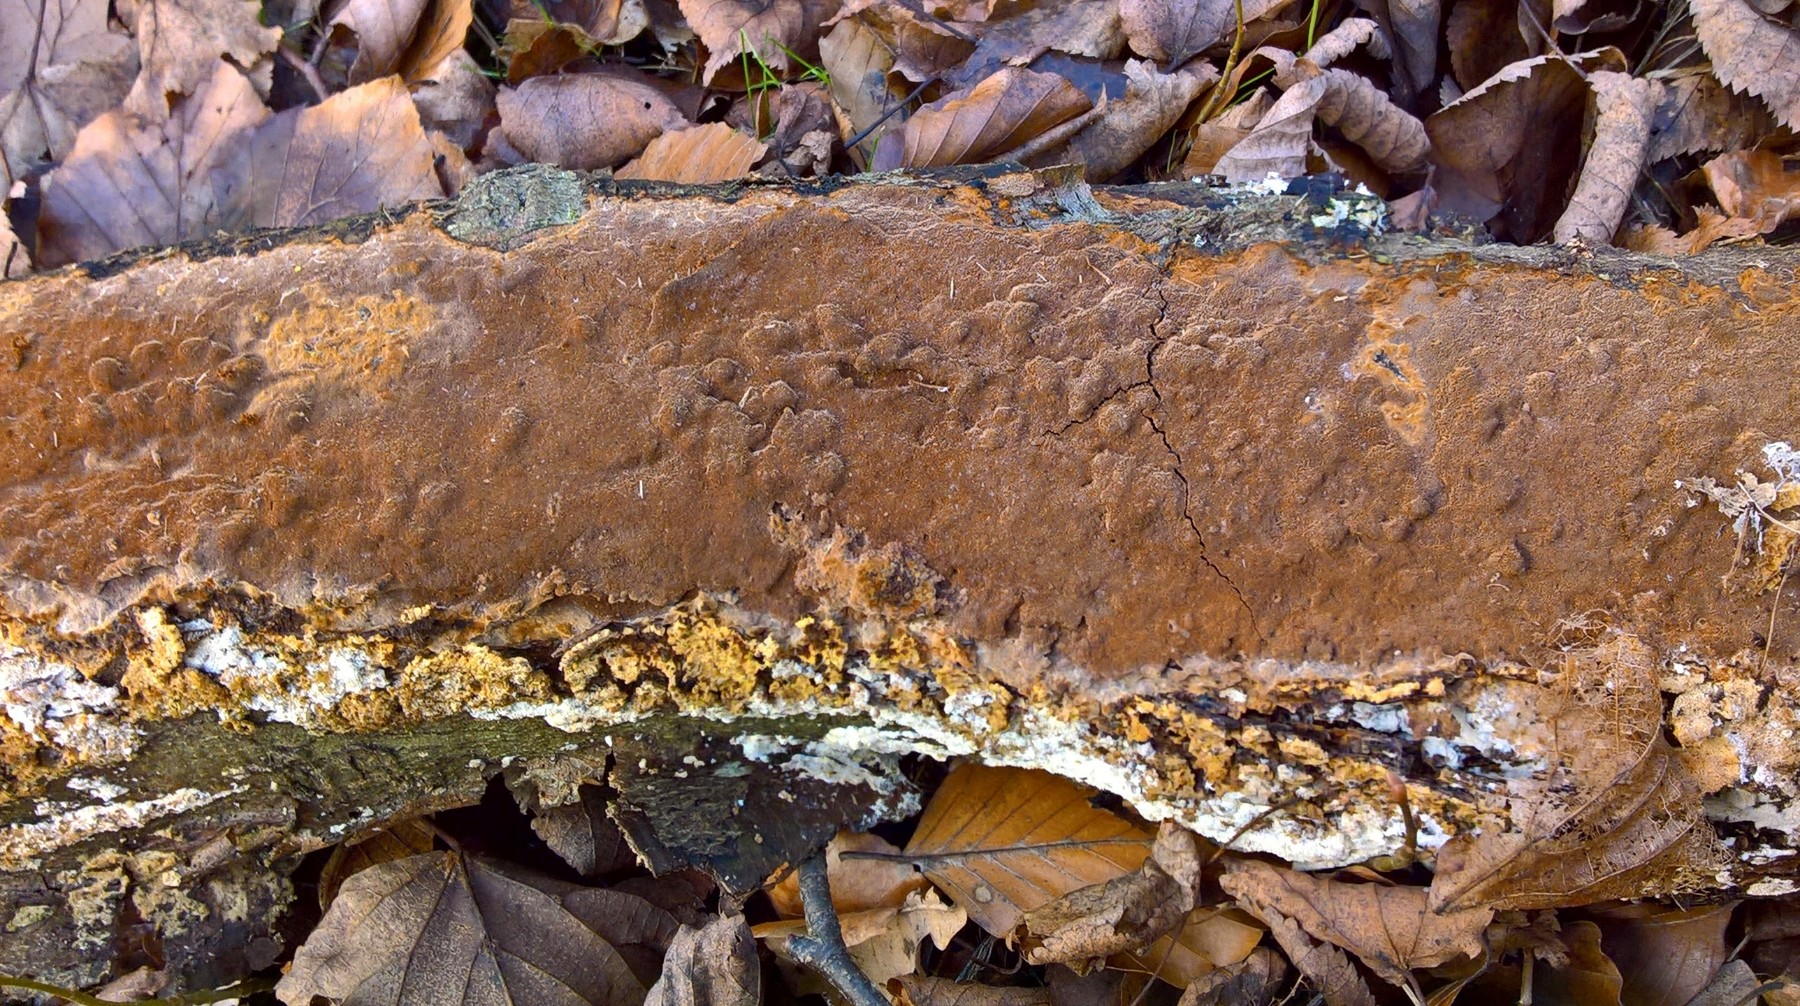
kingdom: Fungi
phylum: Basidiomycota
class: Agaricomycetes
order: Hymenochaetales
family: Hymenochaetaceae
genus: Fuscoporia
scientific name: Fuscoporia
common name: Ildporesvamp
